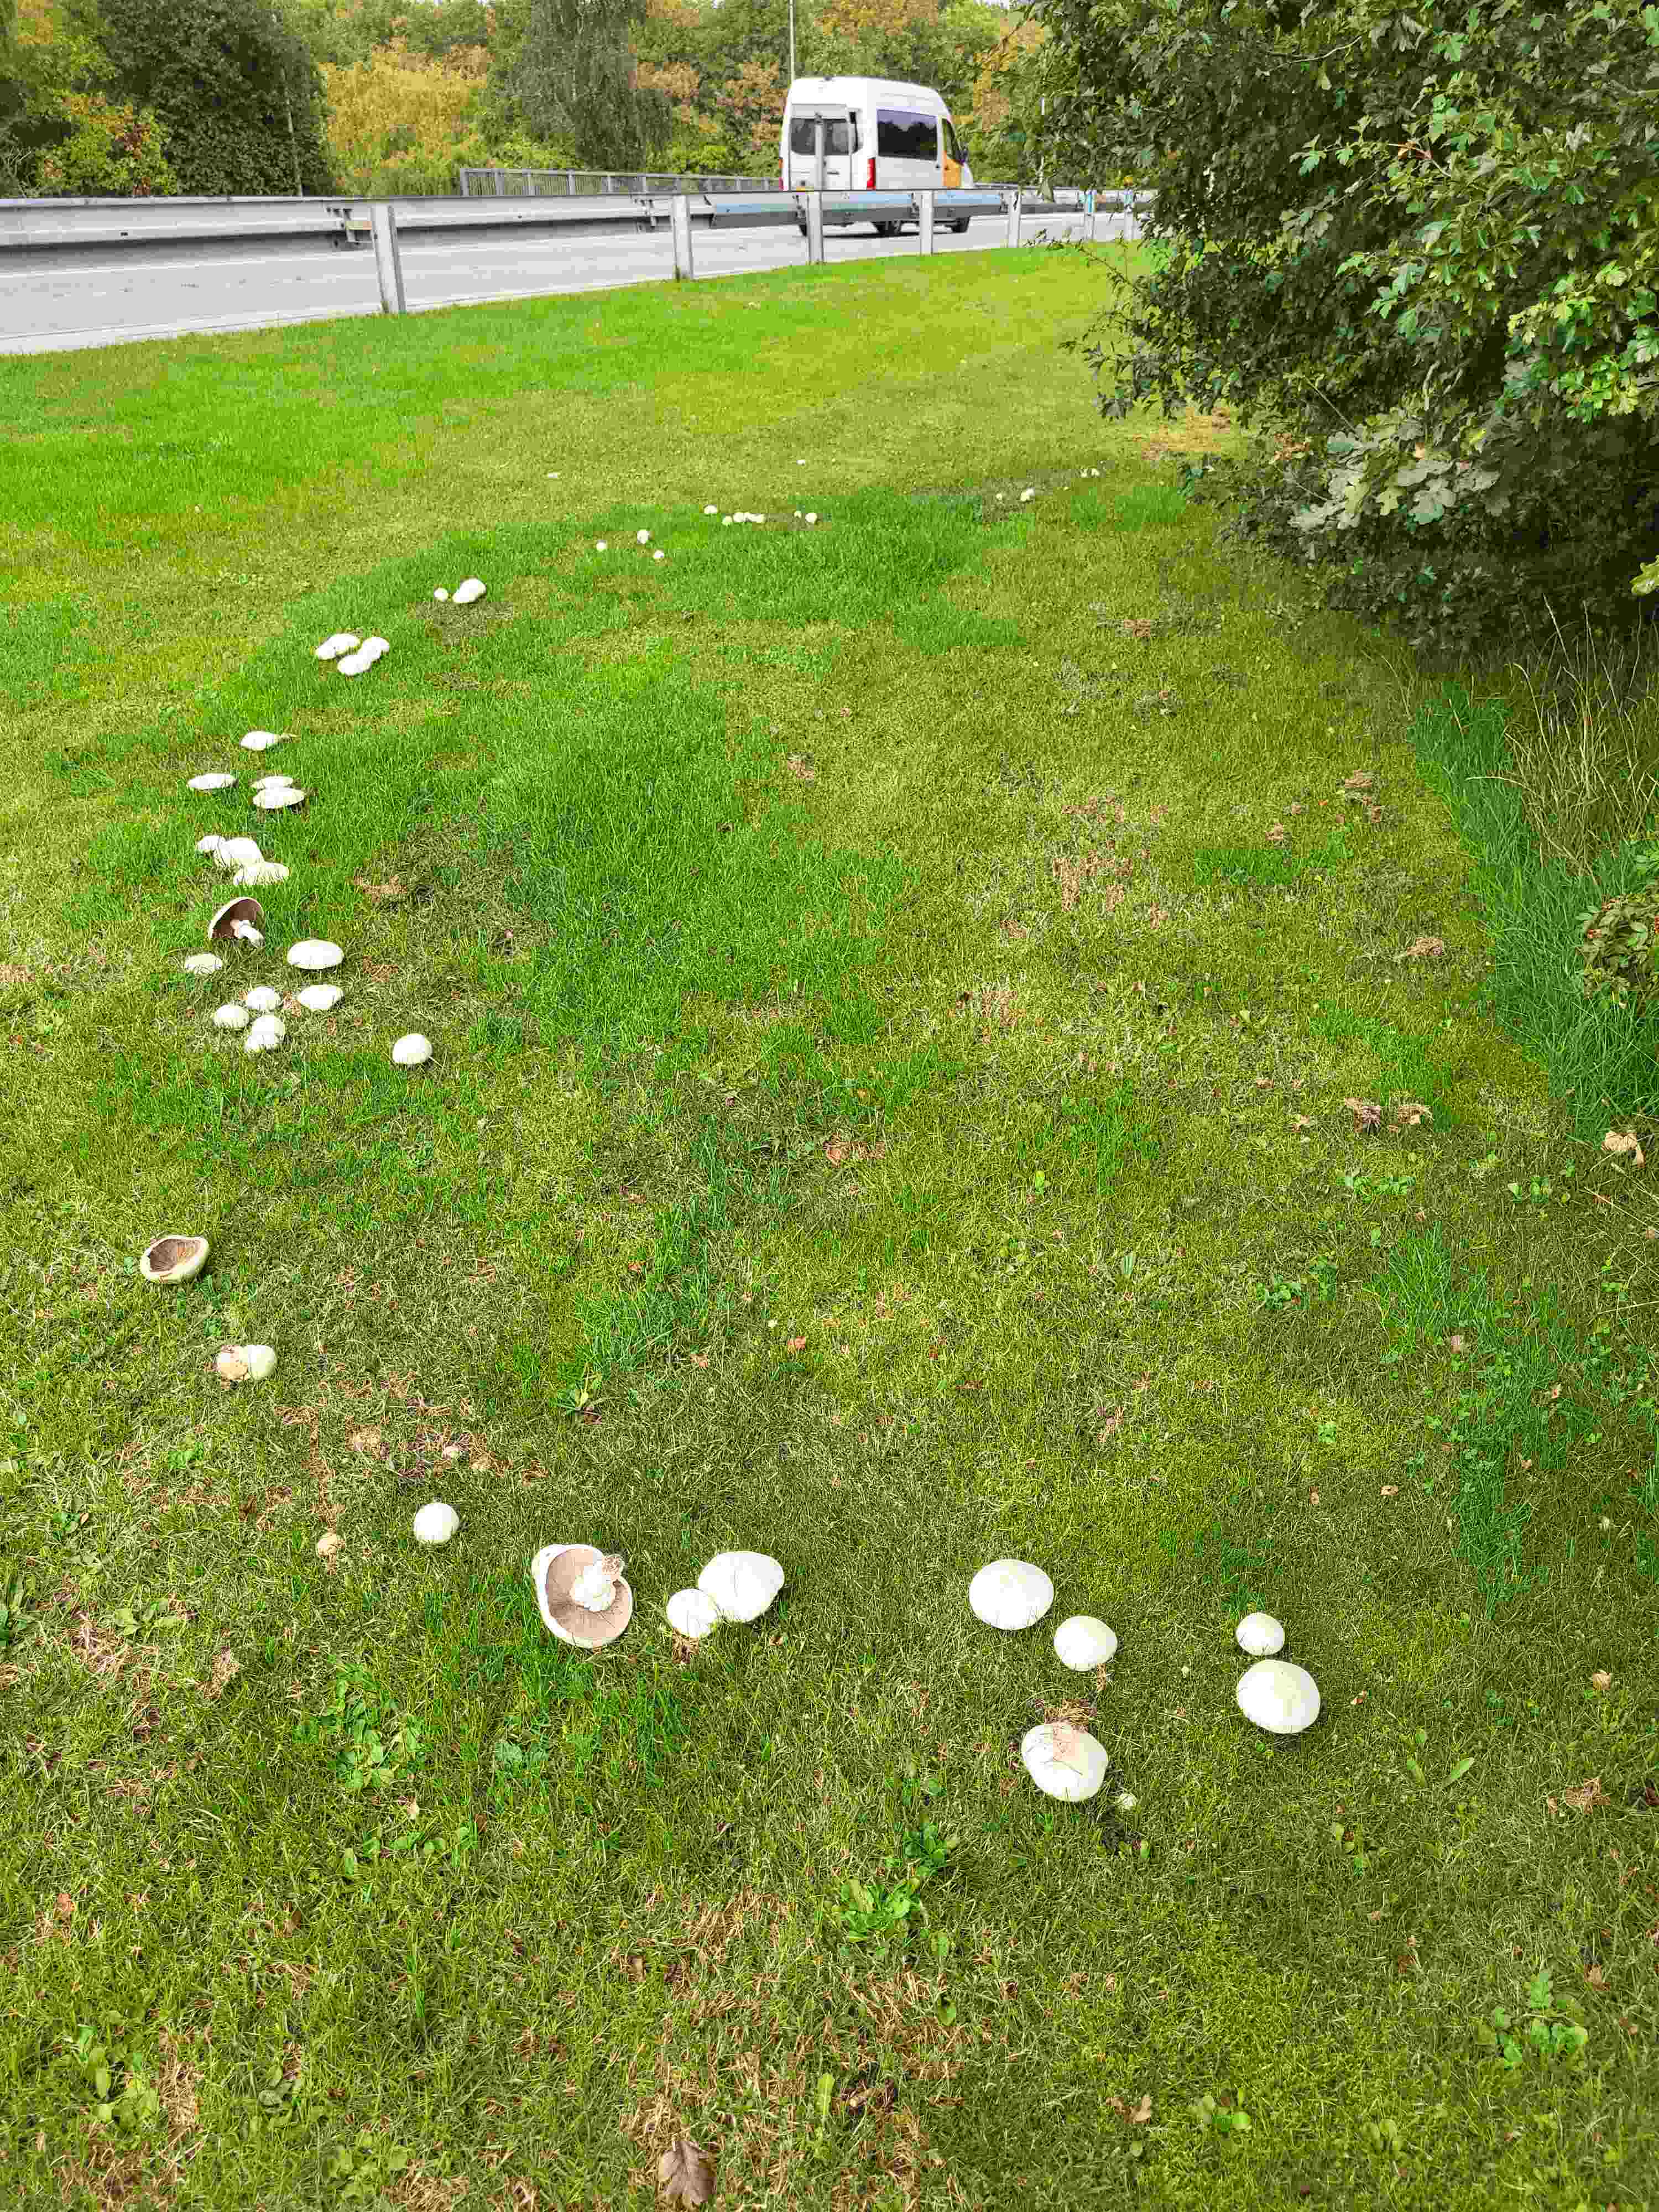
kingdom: Fungi
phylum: Basidiomycota
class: Agaricomycetes
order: Agaricales
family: Agaricaceae
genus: Agaricus
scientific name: Agaricus campestris
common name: mark-champignon
